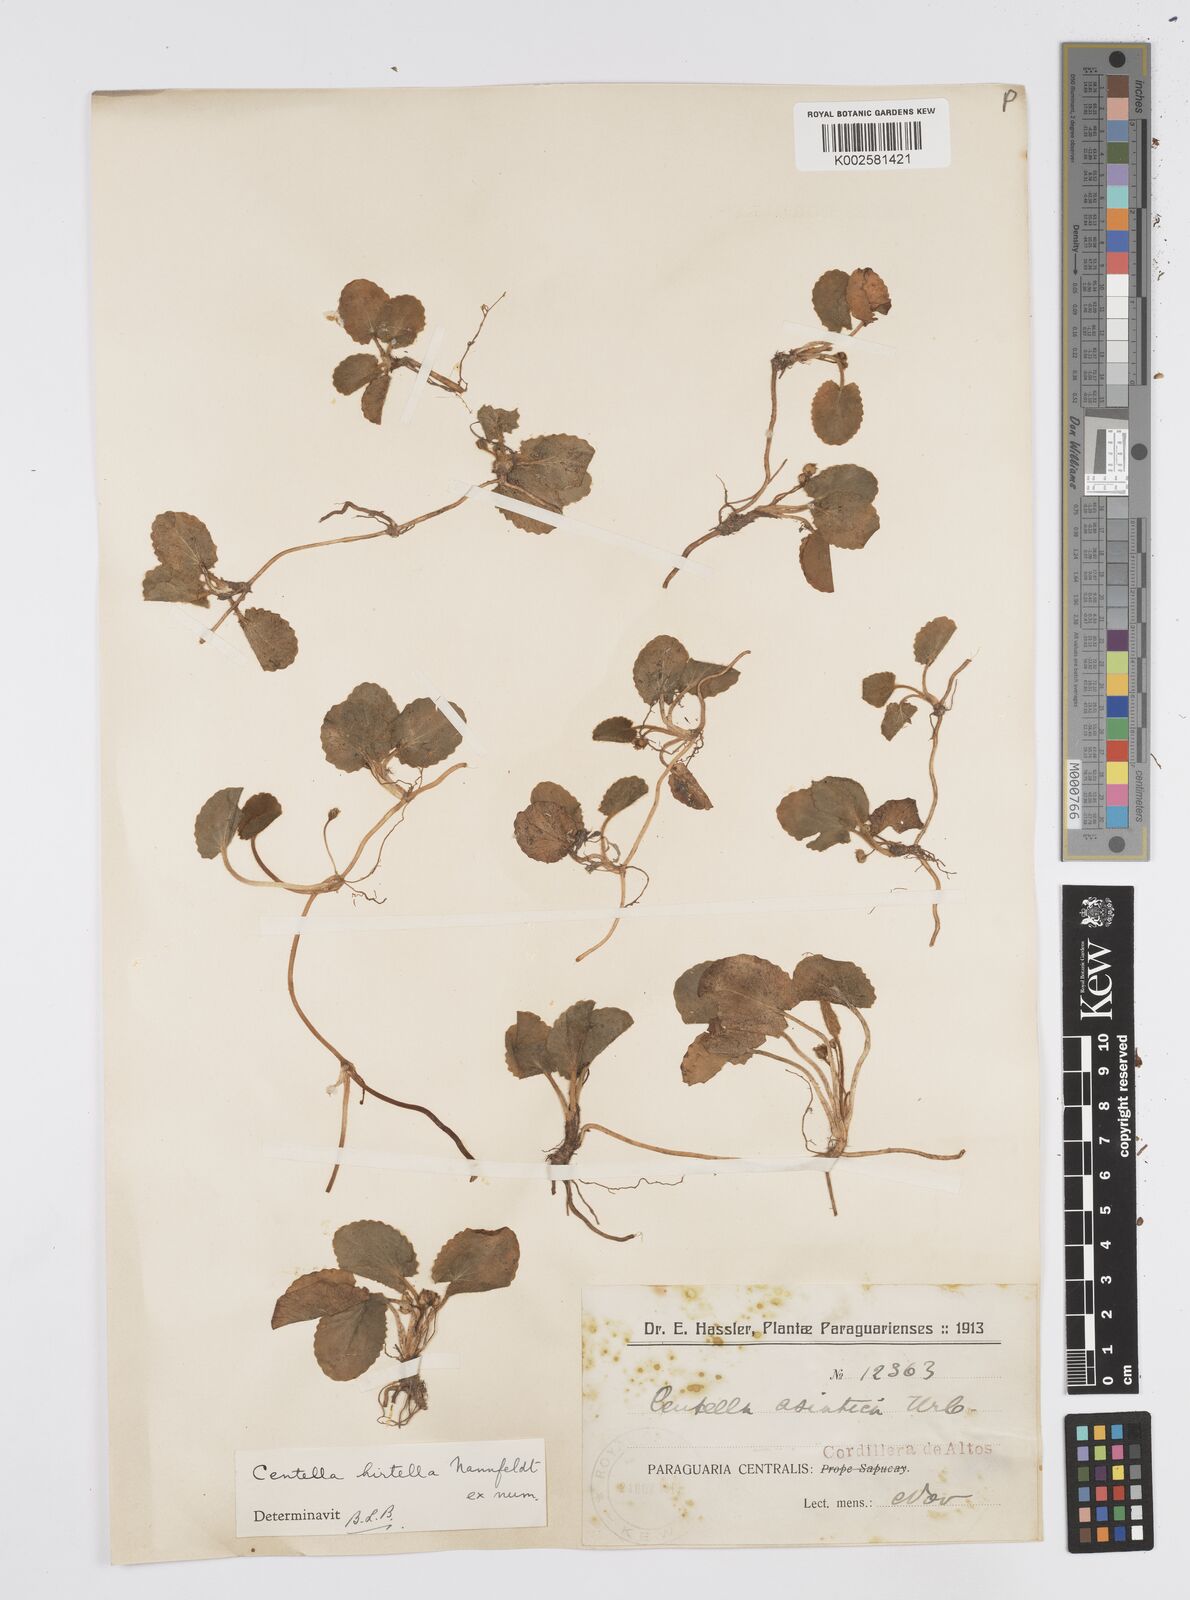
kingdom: Plantae
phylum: Tracheophyta
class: Magnoliopsida
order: Apiales
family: Apiaceae
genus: Centella
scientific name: Centella asiatica
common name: Spadeleaf
